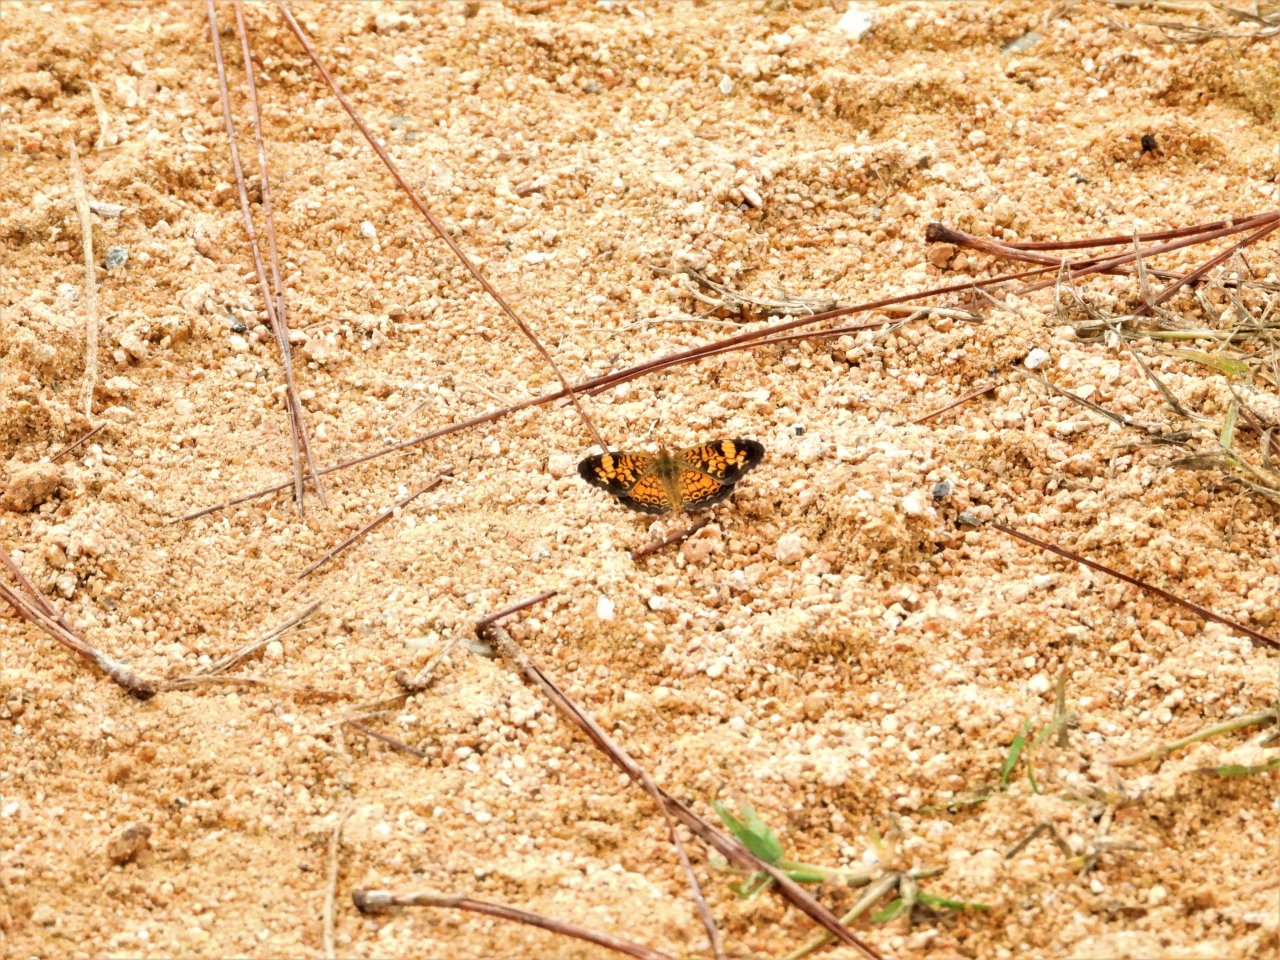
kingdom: Animalia
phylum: Arthropoda
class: Insecta
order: Lepidoptera
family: Nymphalidae
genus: Phyciodes
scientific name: Phyciodes tharos
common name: Pearl Crescent
